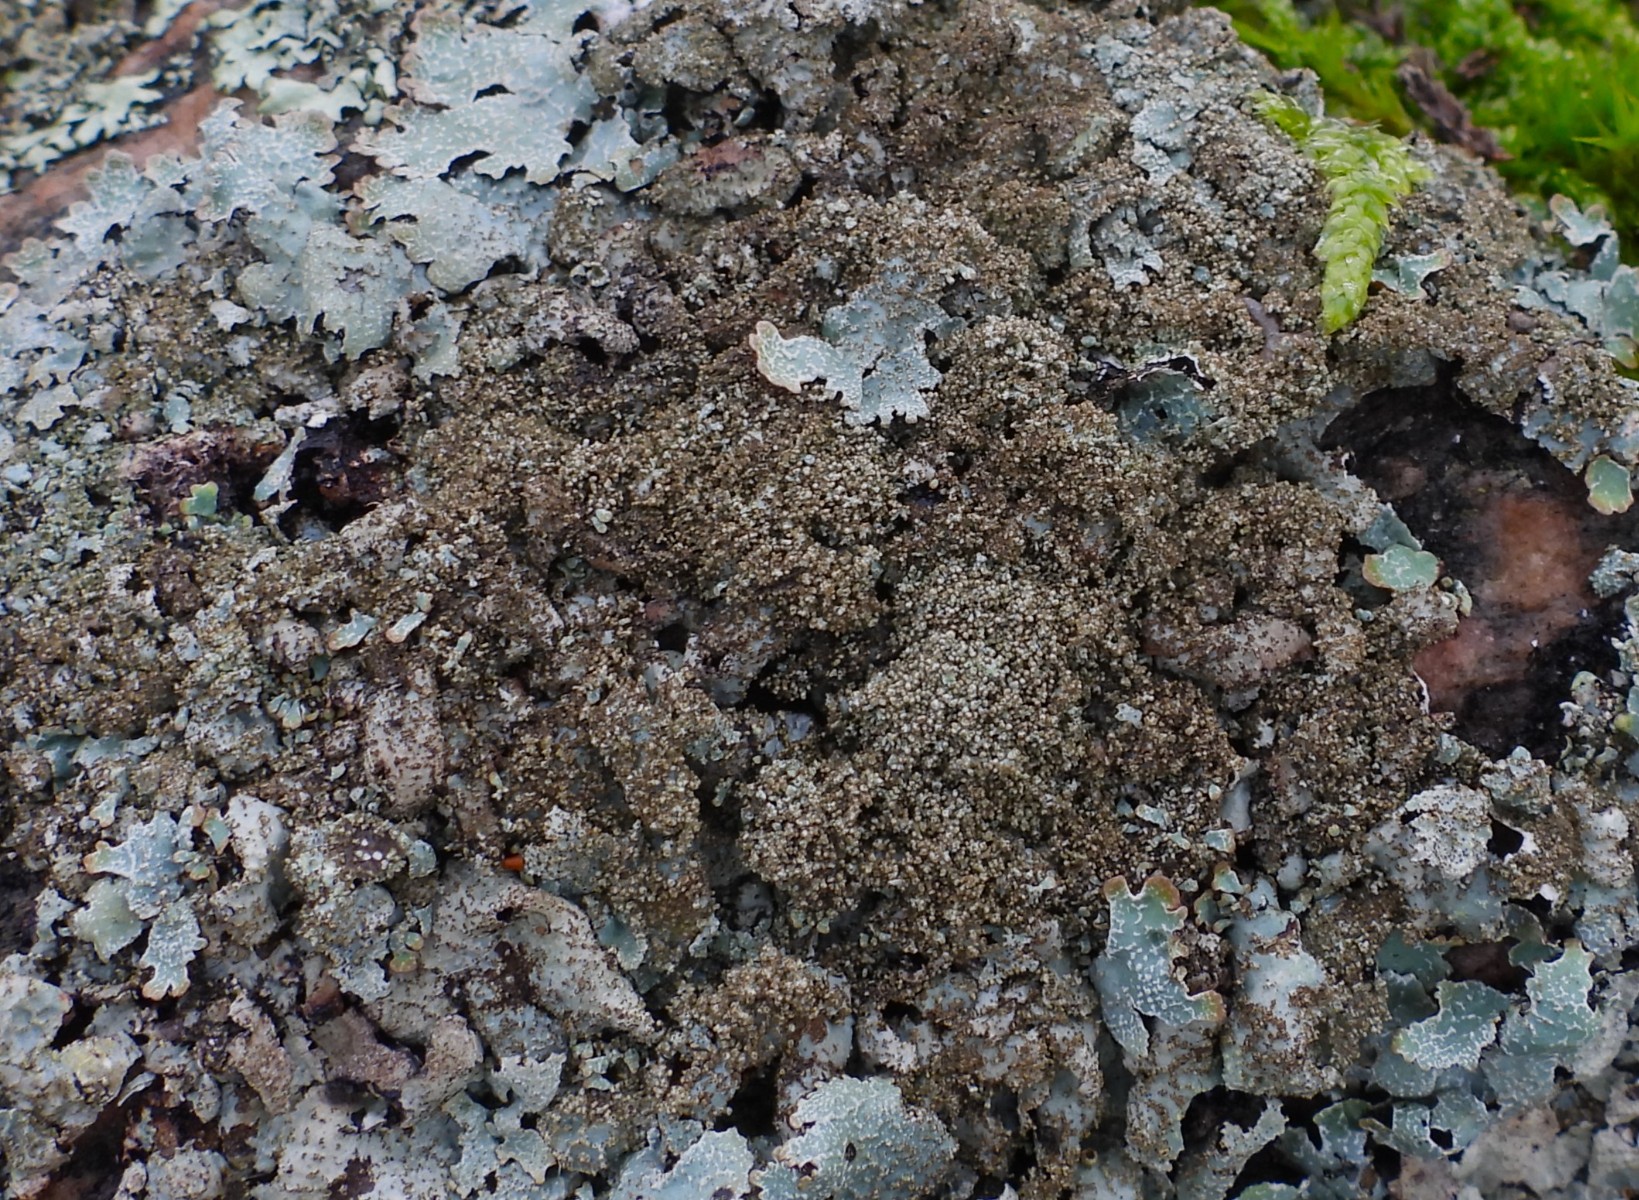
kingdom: Fungi
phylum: Ascomycota
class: Lecanoromycetes
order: Lecanorales
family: Parmeliaceae
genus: Parmelia
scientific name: Parmelia saxatilis
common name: farve-skållav
